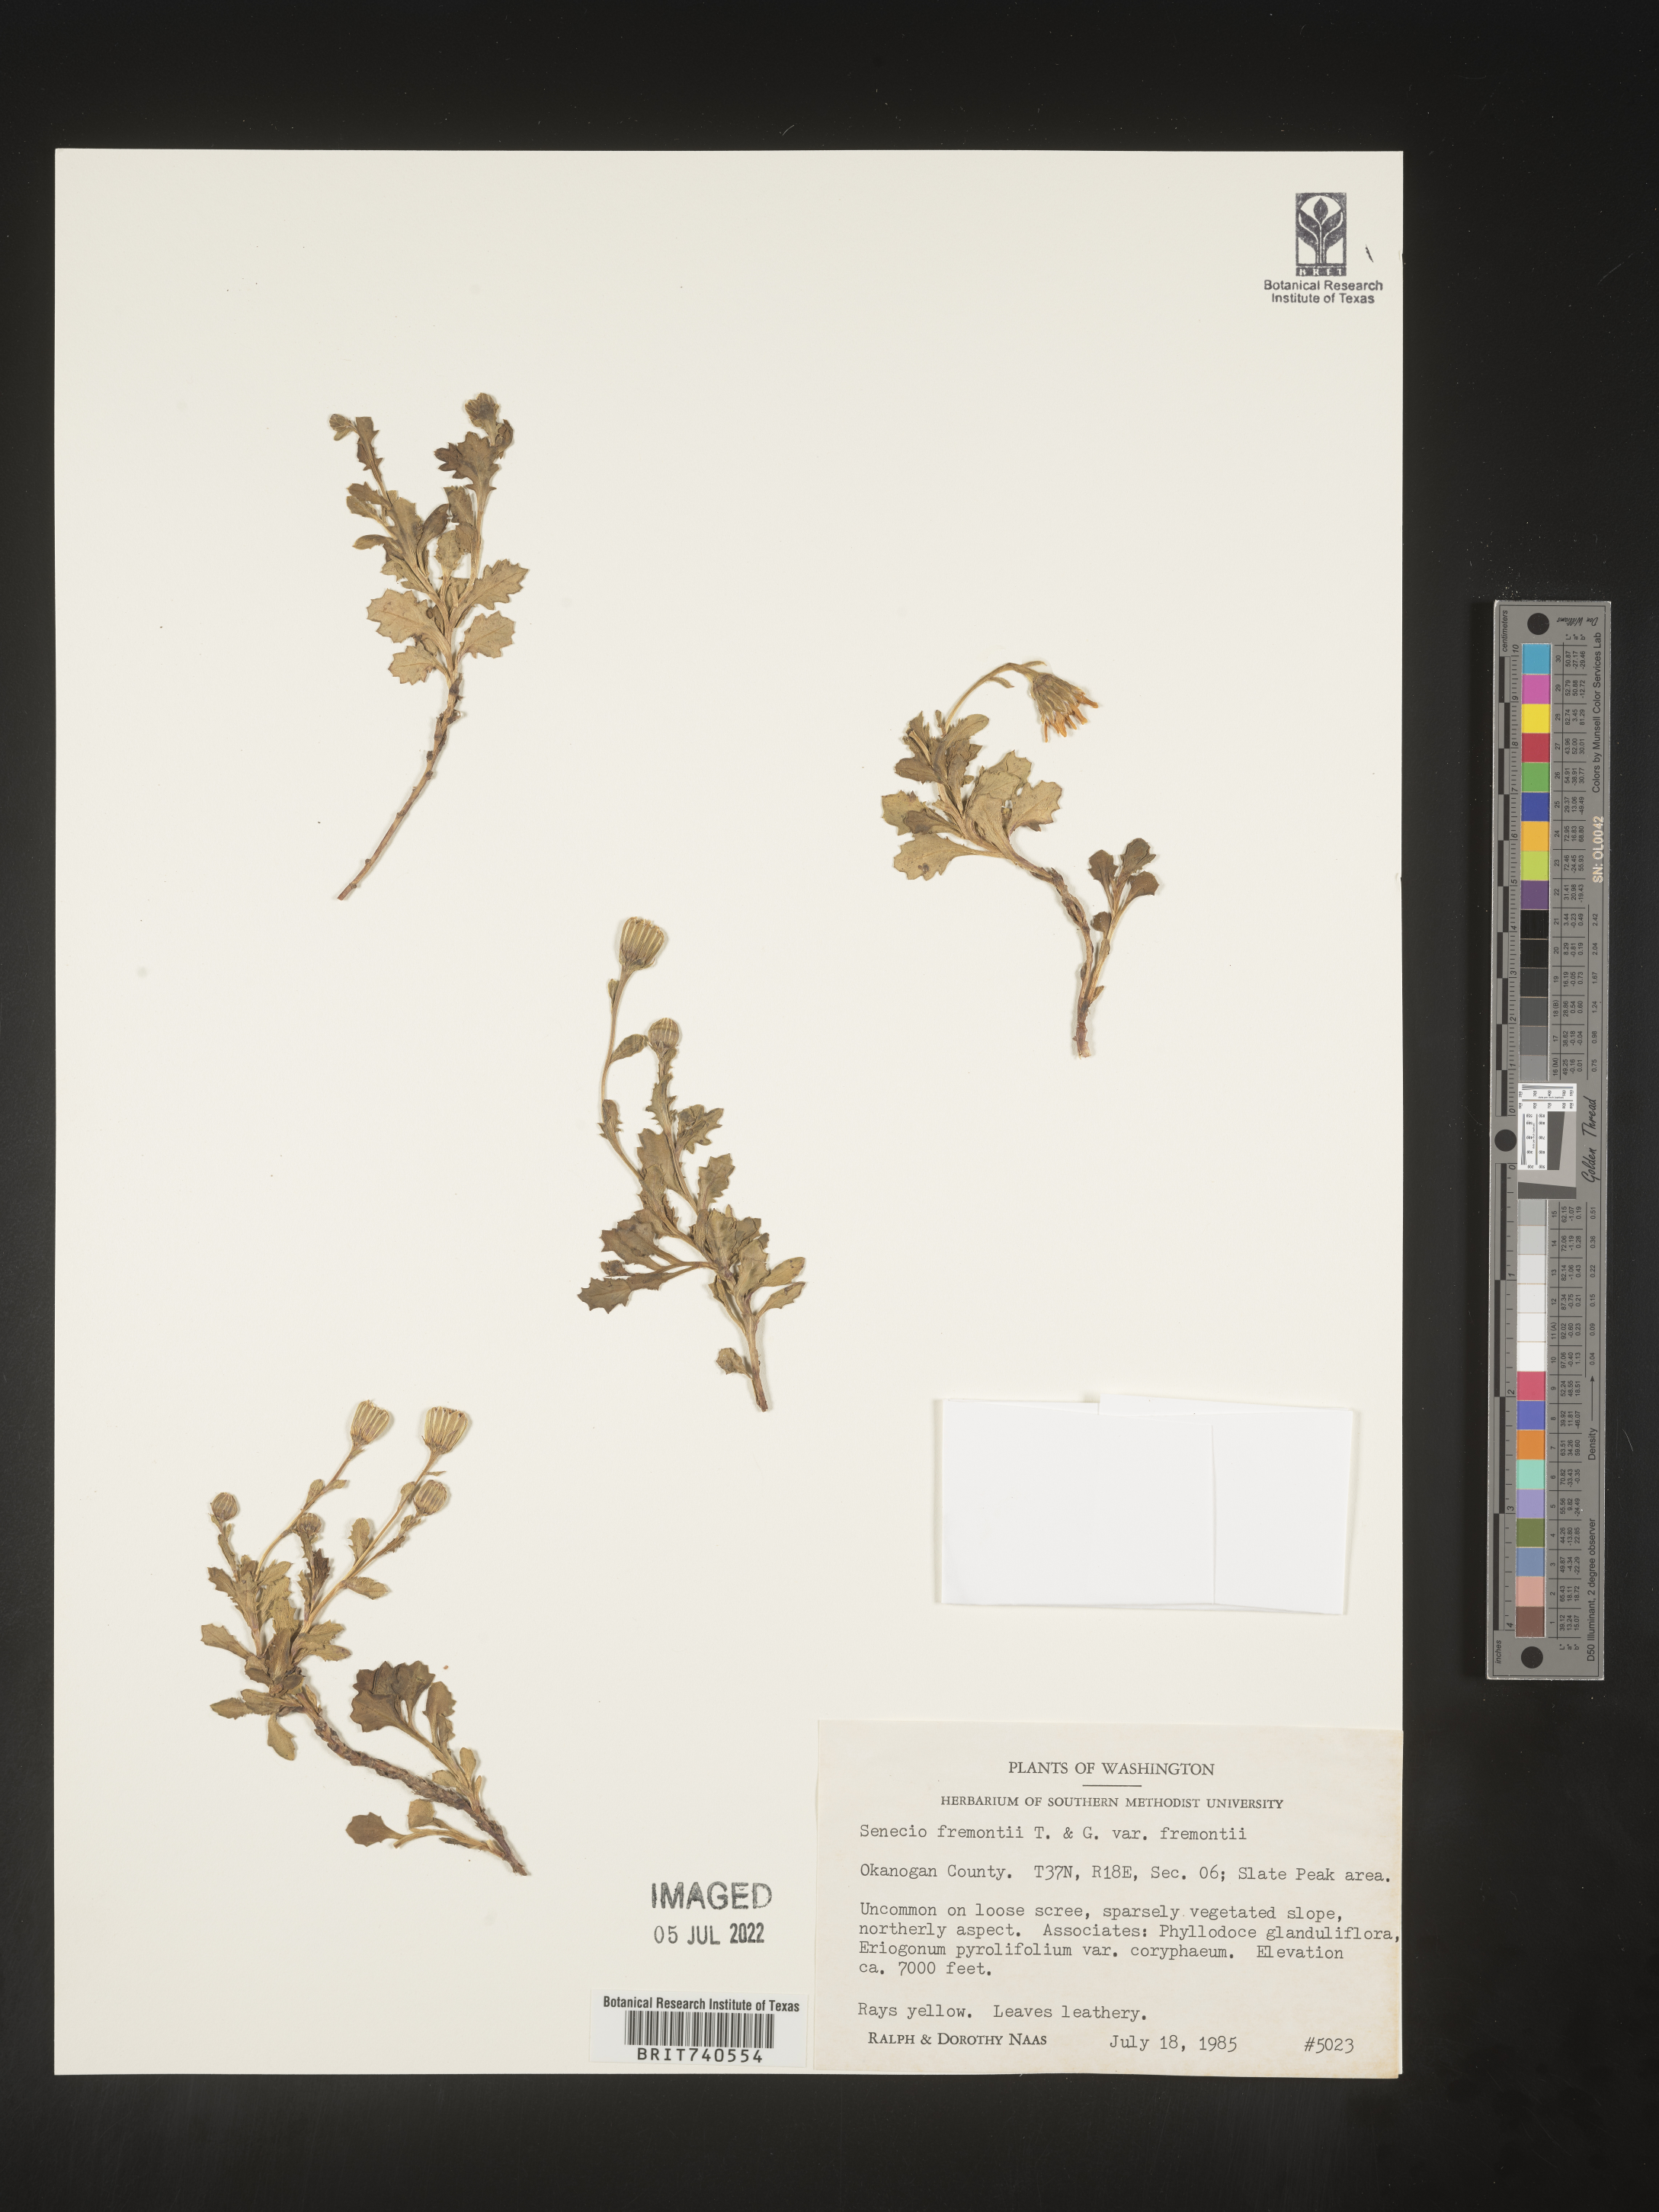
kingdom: Plantae
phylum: Tracheophyta
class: Magnoliopsida
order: Asterales
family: Asteraceae
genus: Senecio
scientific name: Senecio fremontii
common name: Fremont's groundsel
